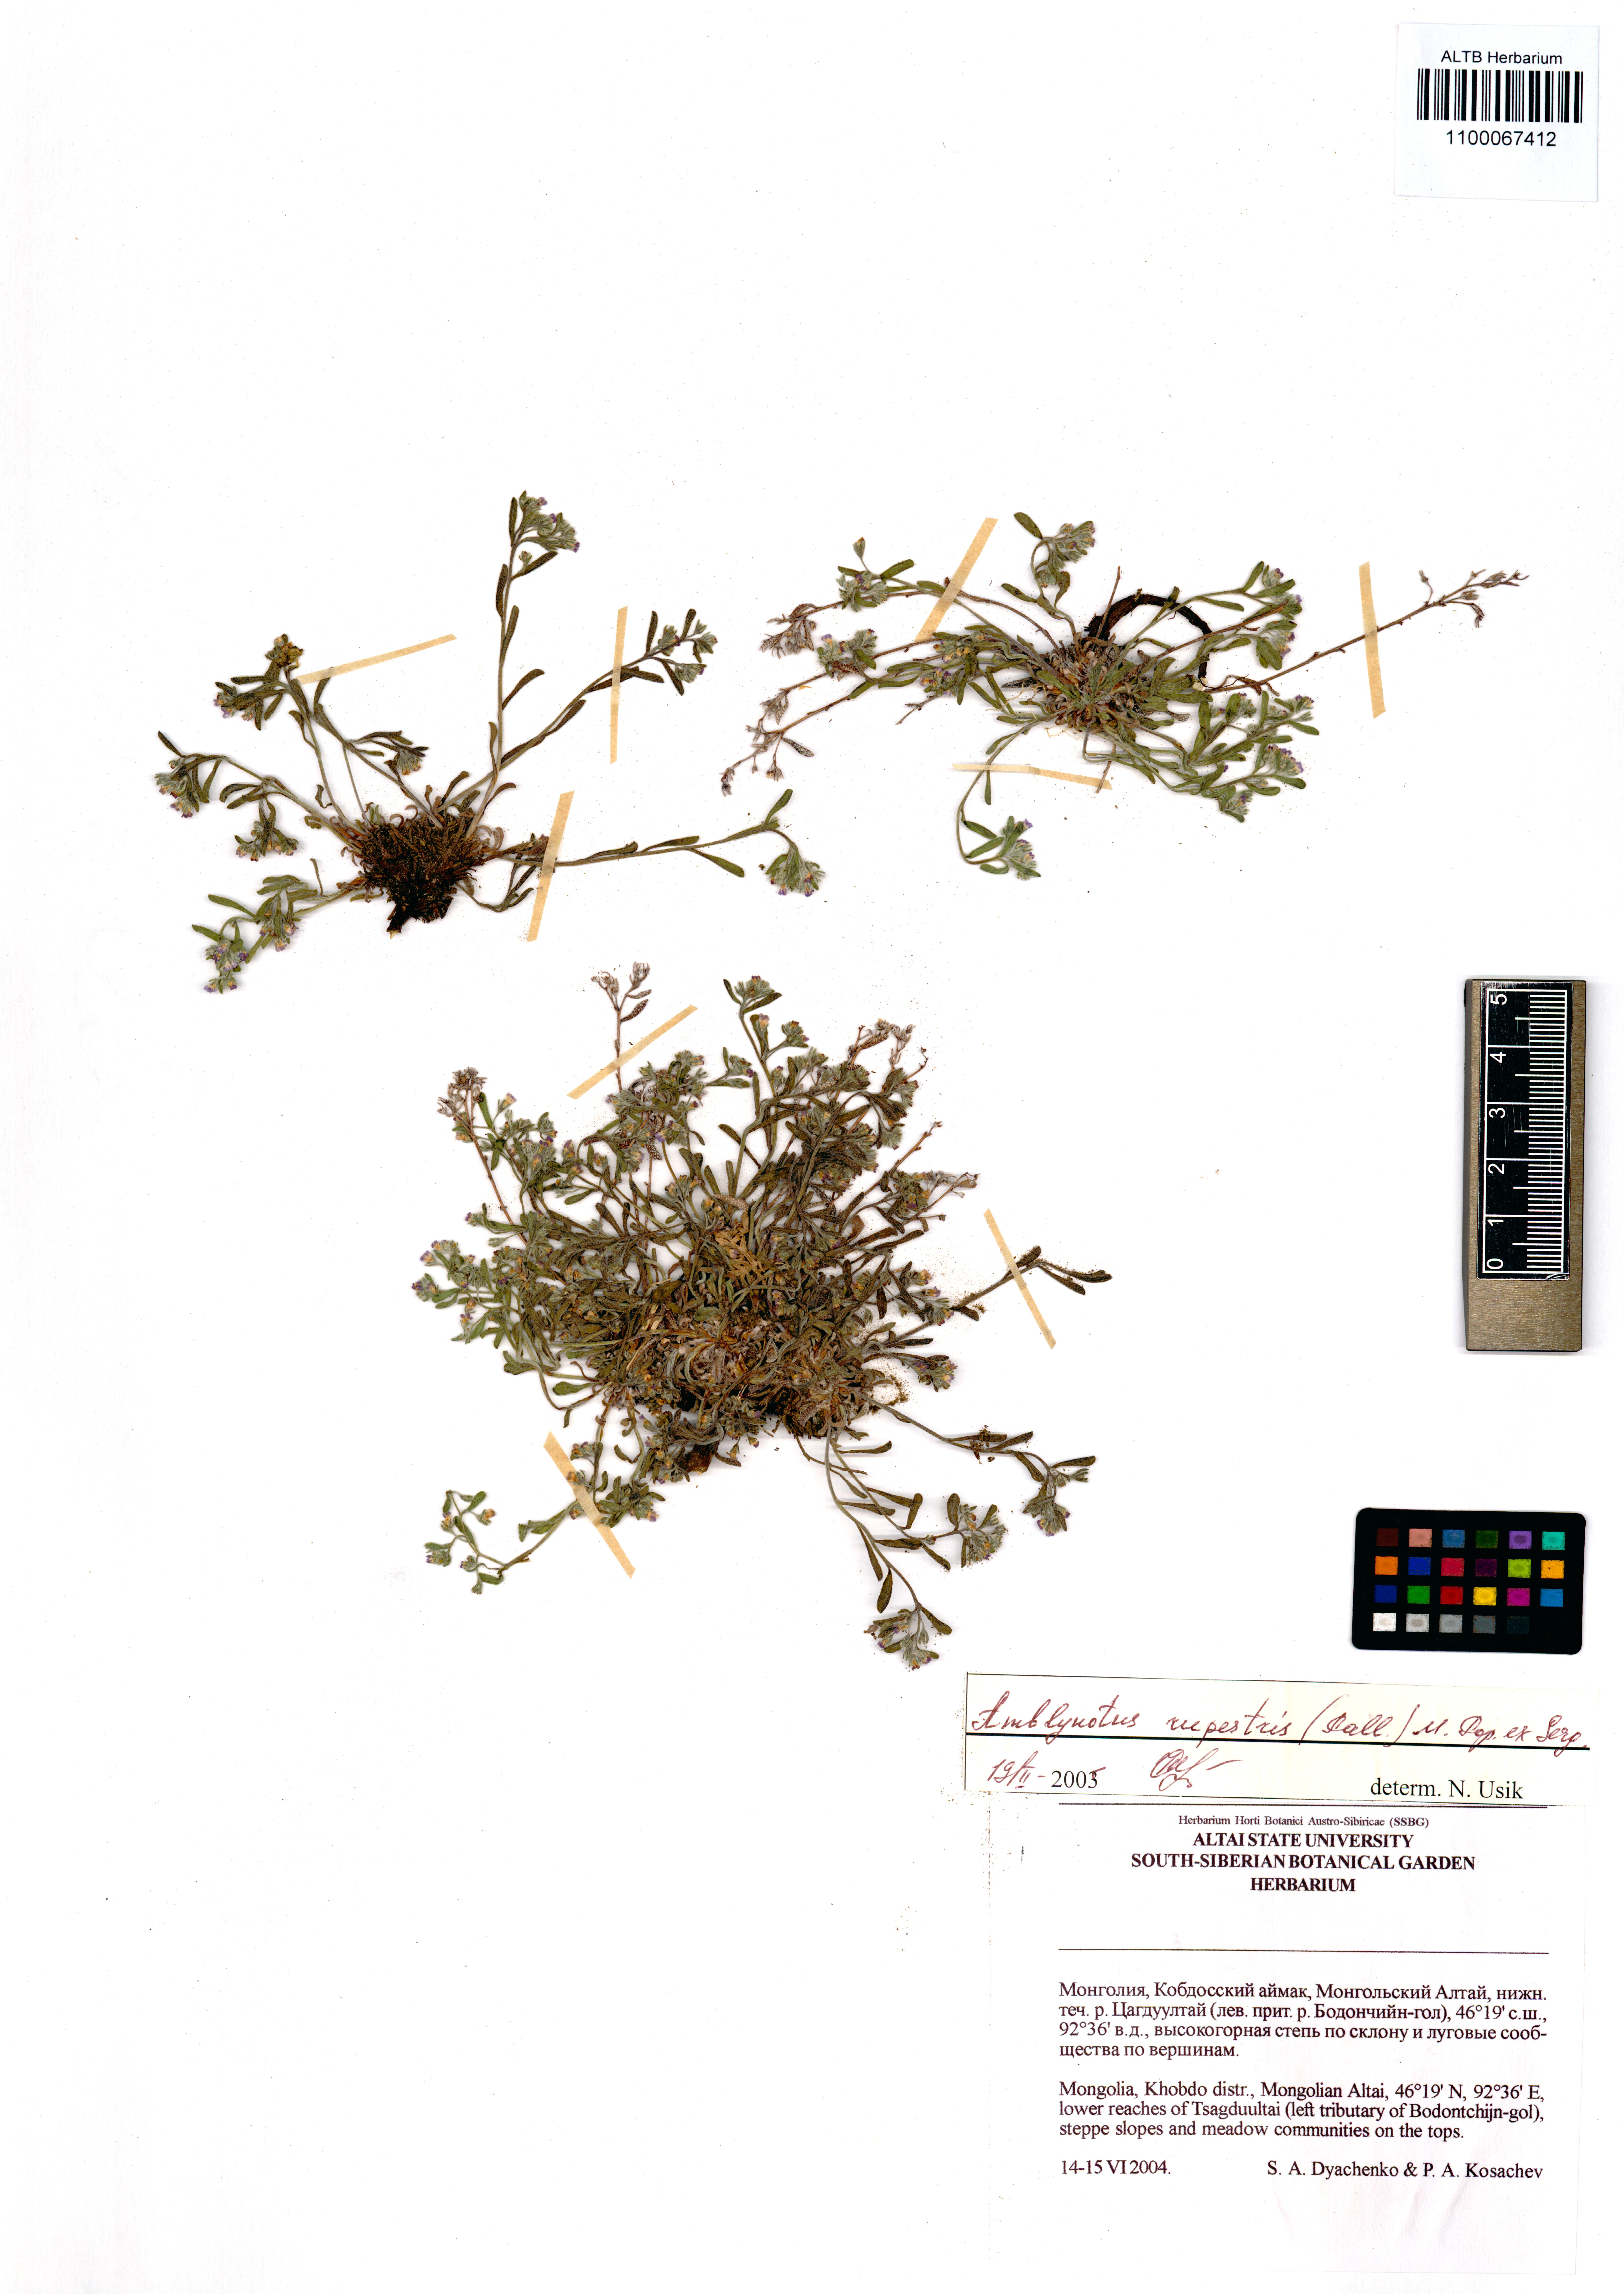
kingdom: Plantae
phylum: Tracheophyta
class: Magnoliopsida
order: Boraginales
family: Boraginaceae
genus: Eritrichium
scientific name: Eritrichium rupestre
